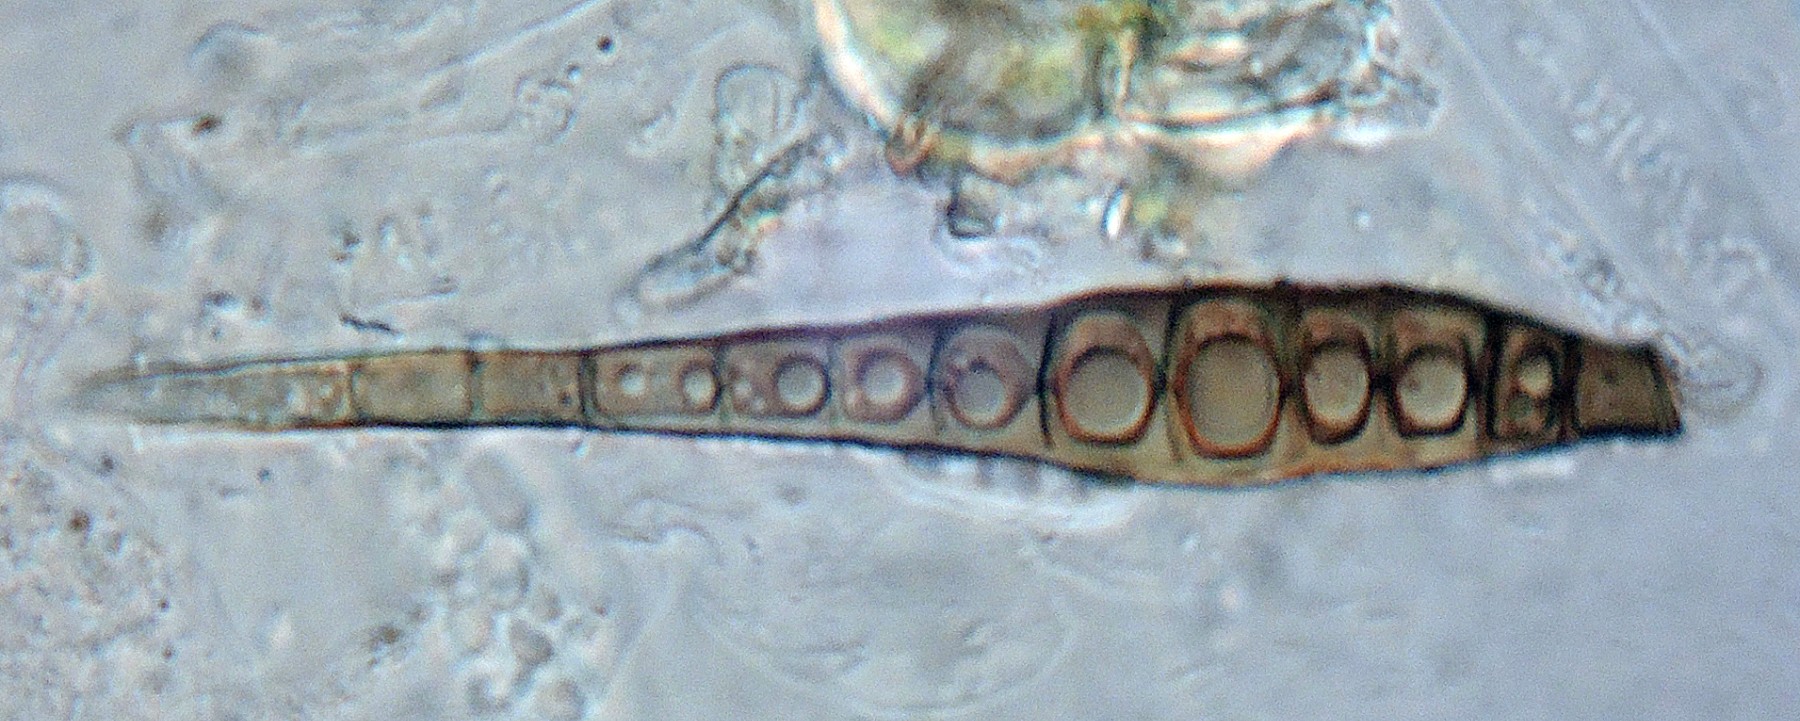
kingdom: Fungi
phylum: Ascomycota
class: Dothideomycetes
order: Pleosporales
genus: Sporidesmium
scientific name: Sporidesmium pedunculatum
